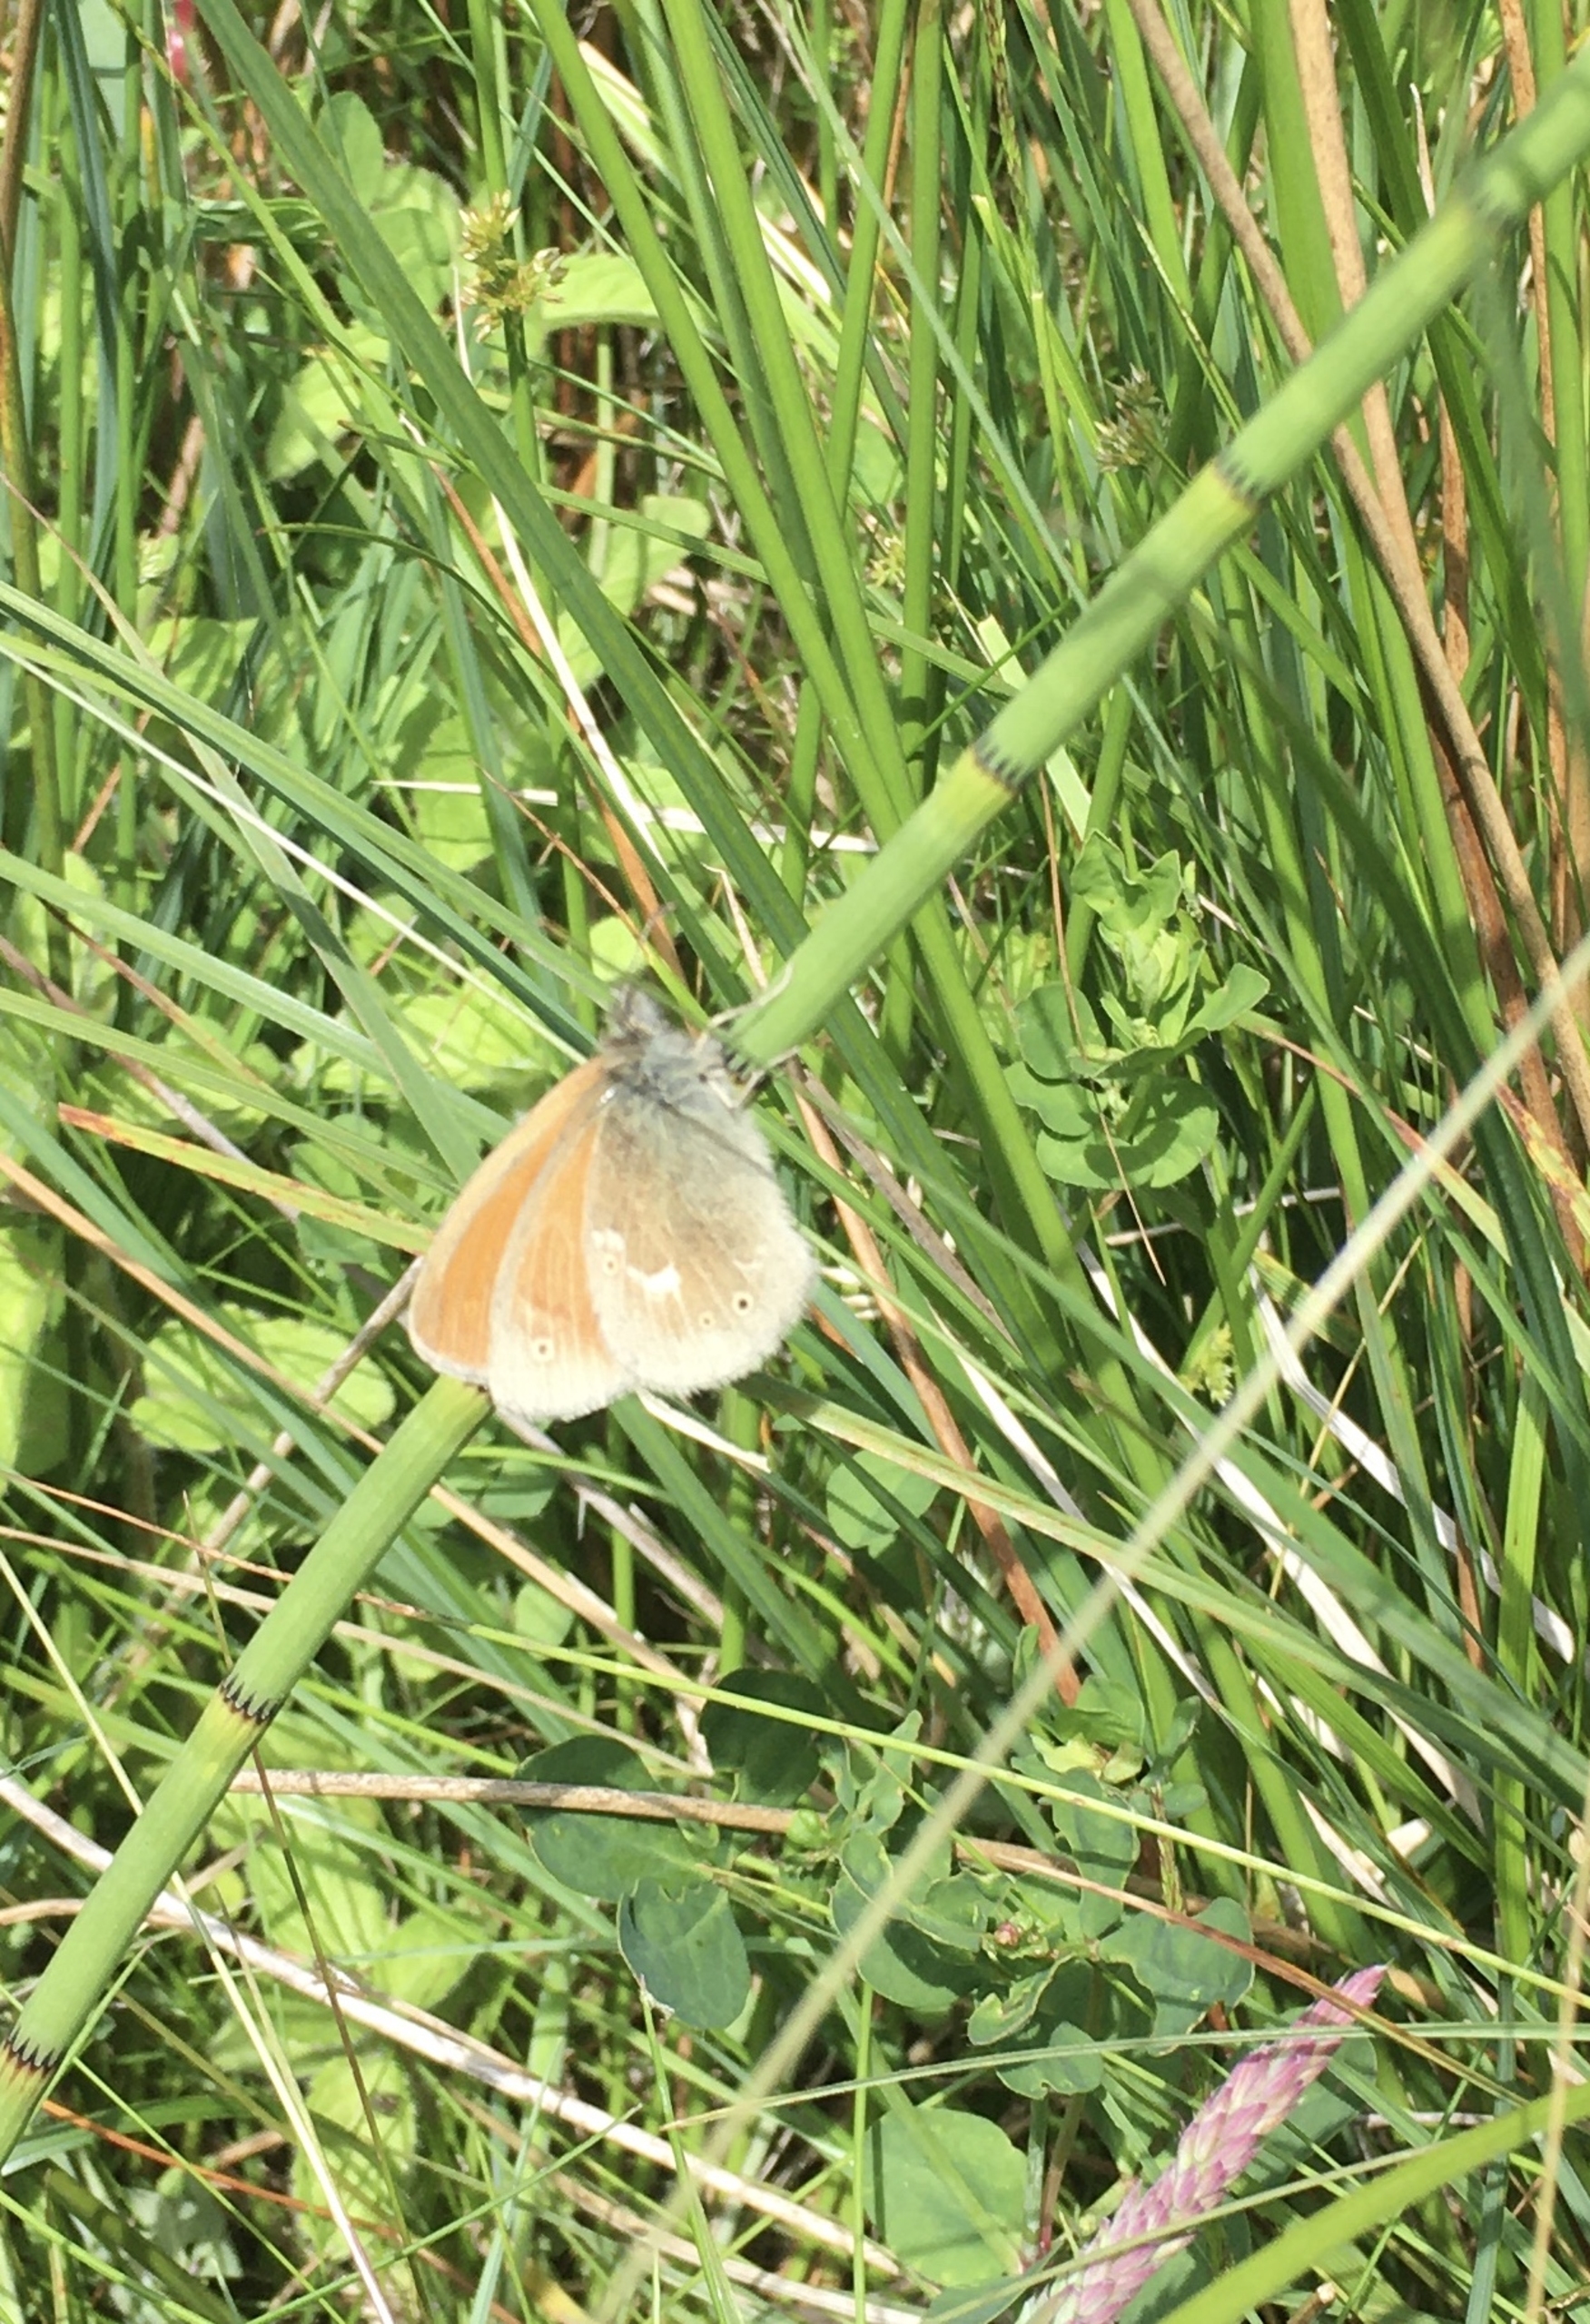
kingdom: Animalia
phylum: Arthropoda
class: Insecta
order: Lepidoptera
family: Nymphalidae
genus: Coenonympha
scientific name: Coenonympha tullia
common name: Moserandøje
